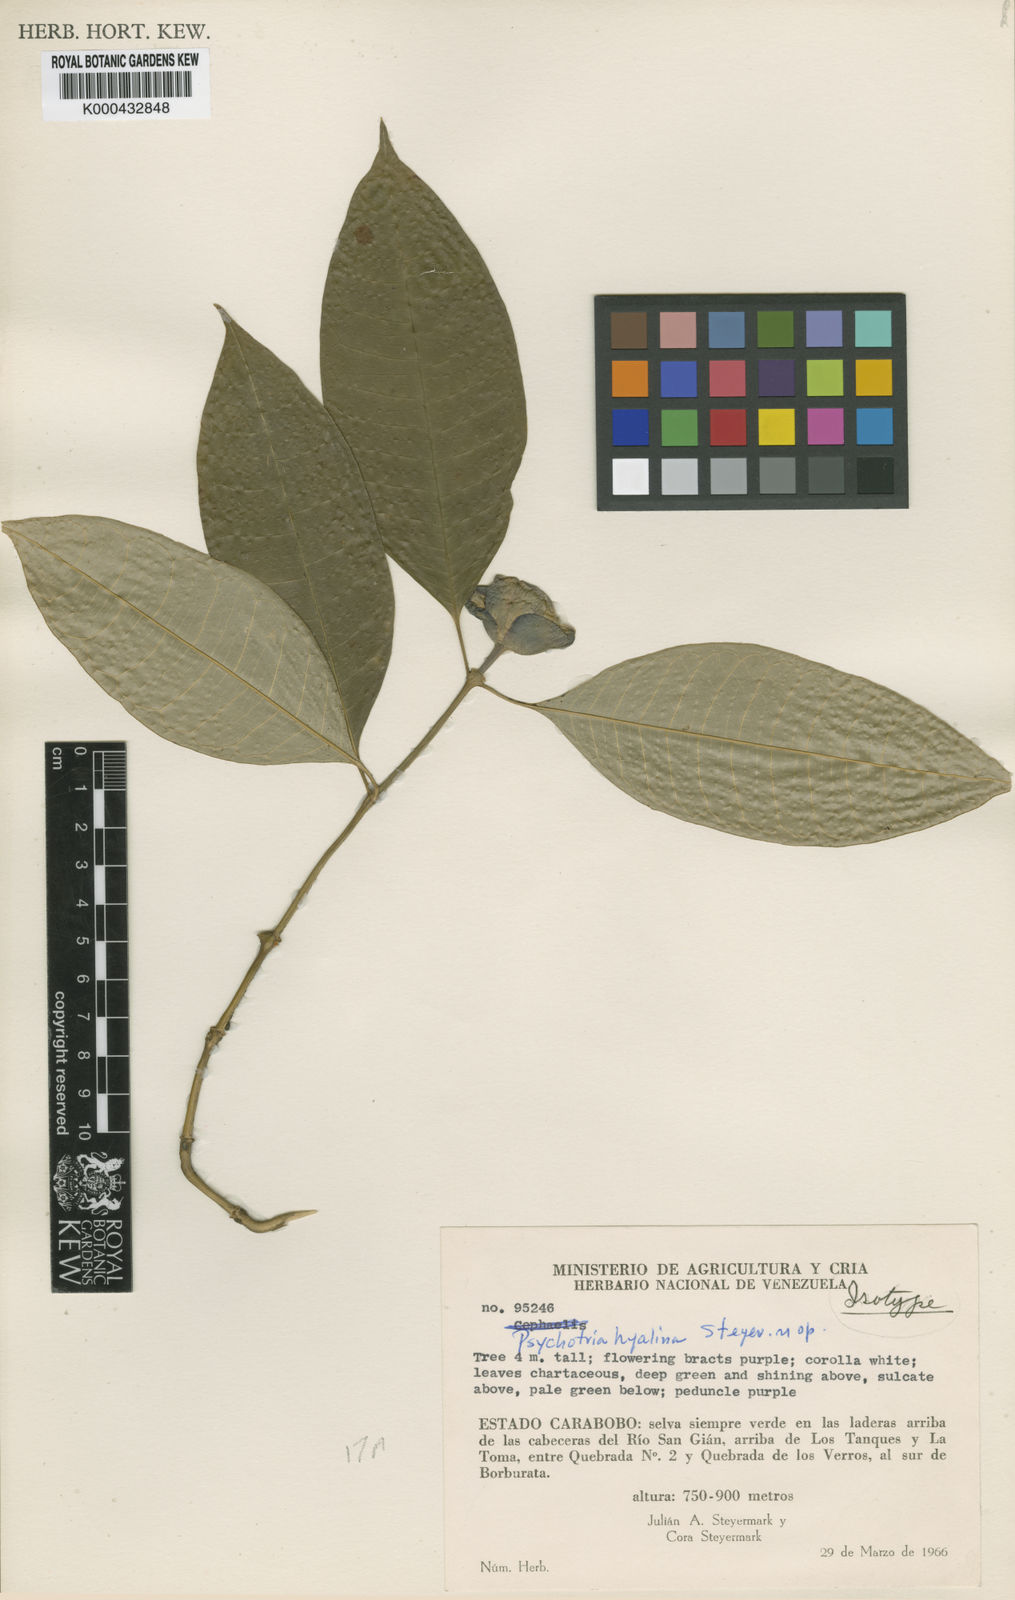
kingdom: Plantae
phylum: Tracheophyta
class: Magnoliopsida
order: Gentianales
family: Rubiaceae
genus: Palicourea
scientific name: Palicourea hyalina
